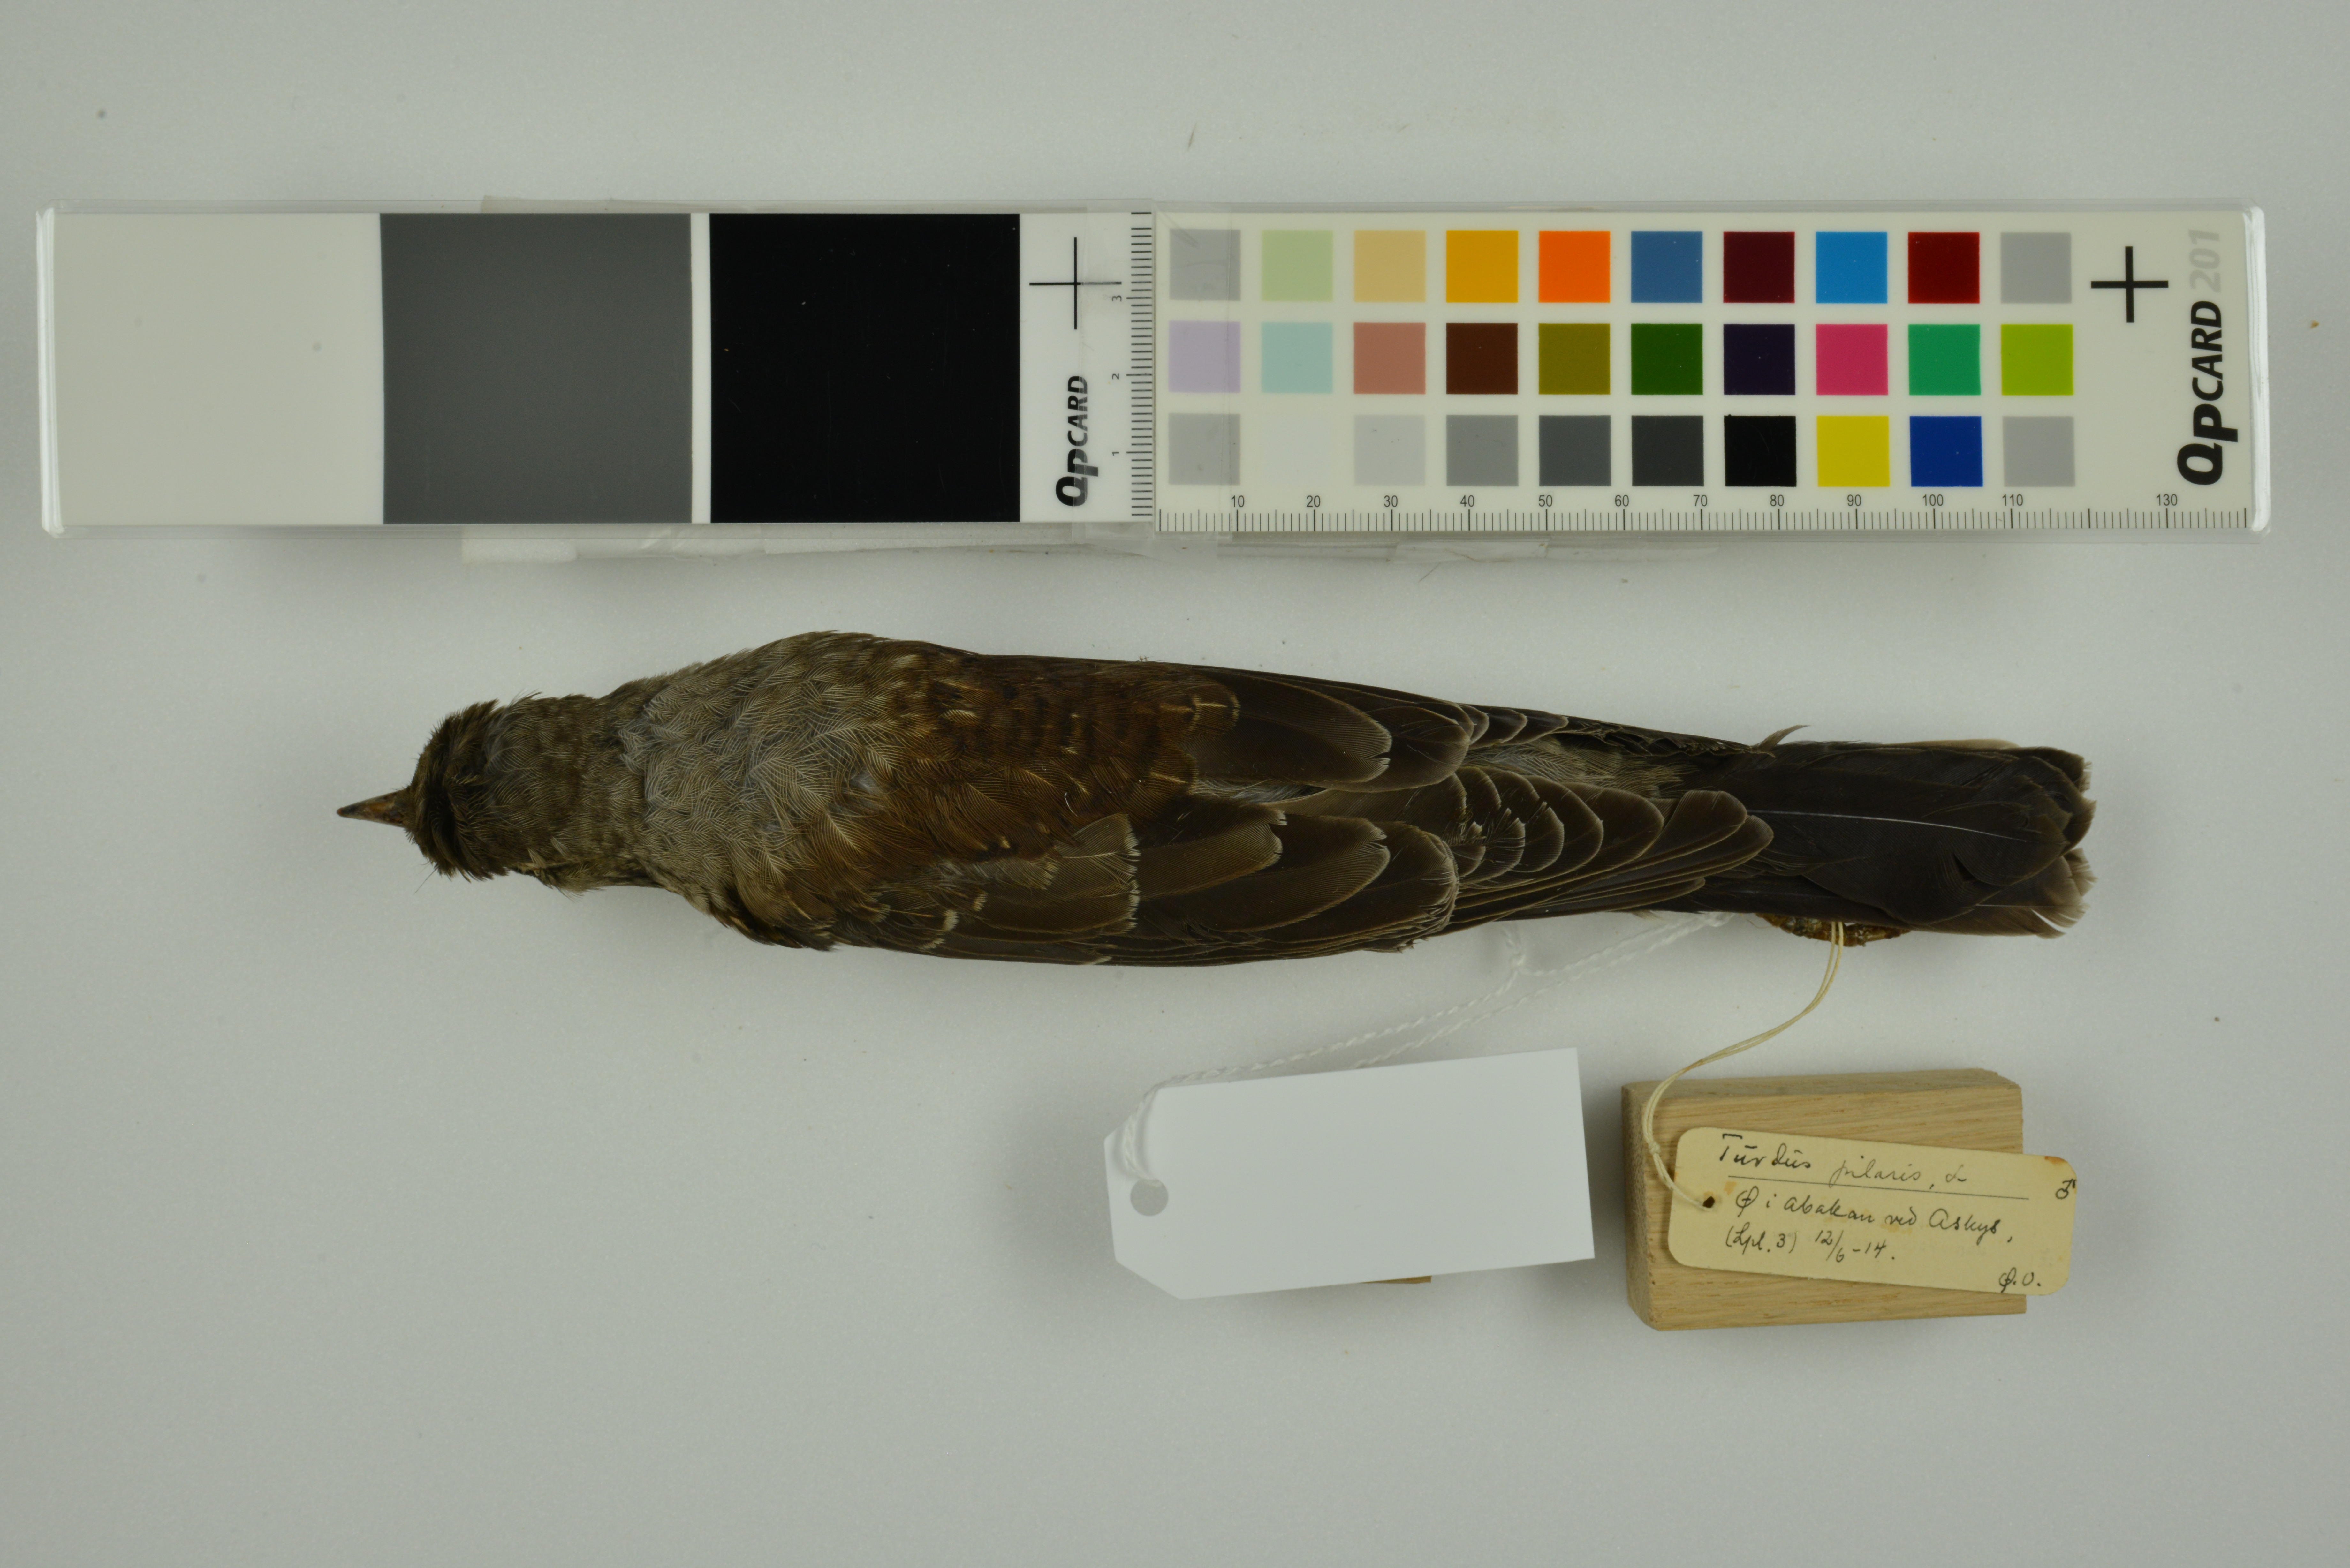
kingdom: Animalia
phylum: Chordata
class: Aves
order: Passeriformes
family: Turdidae
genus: Turdus
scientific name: Turdus pilaris
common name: Fieldfare
